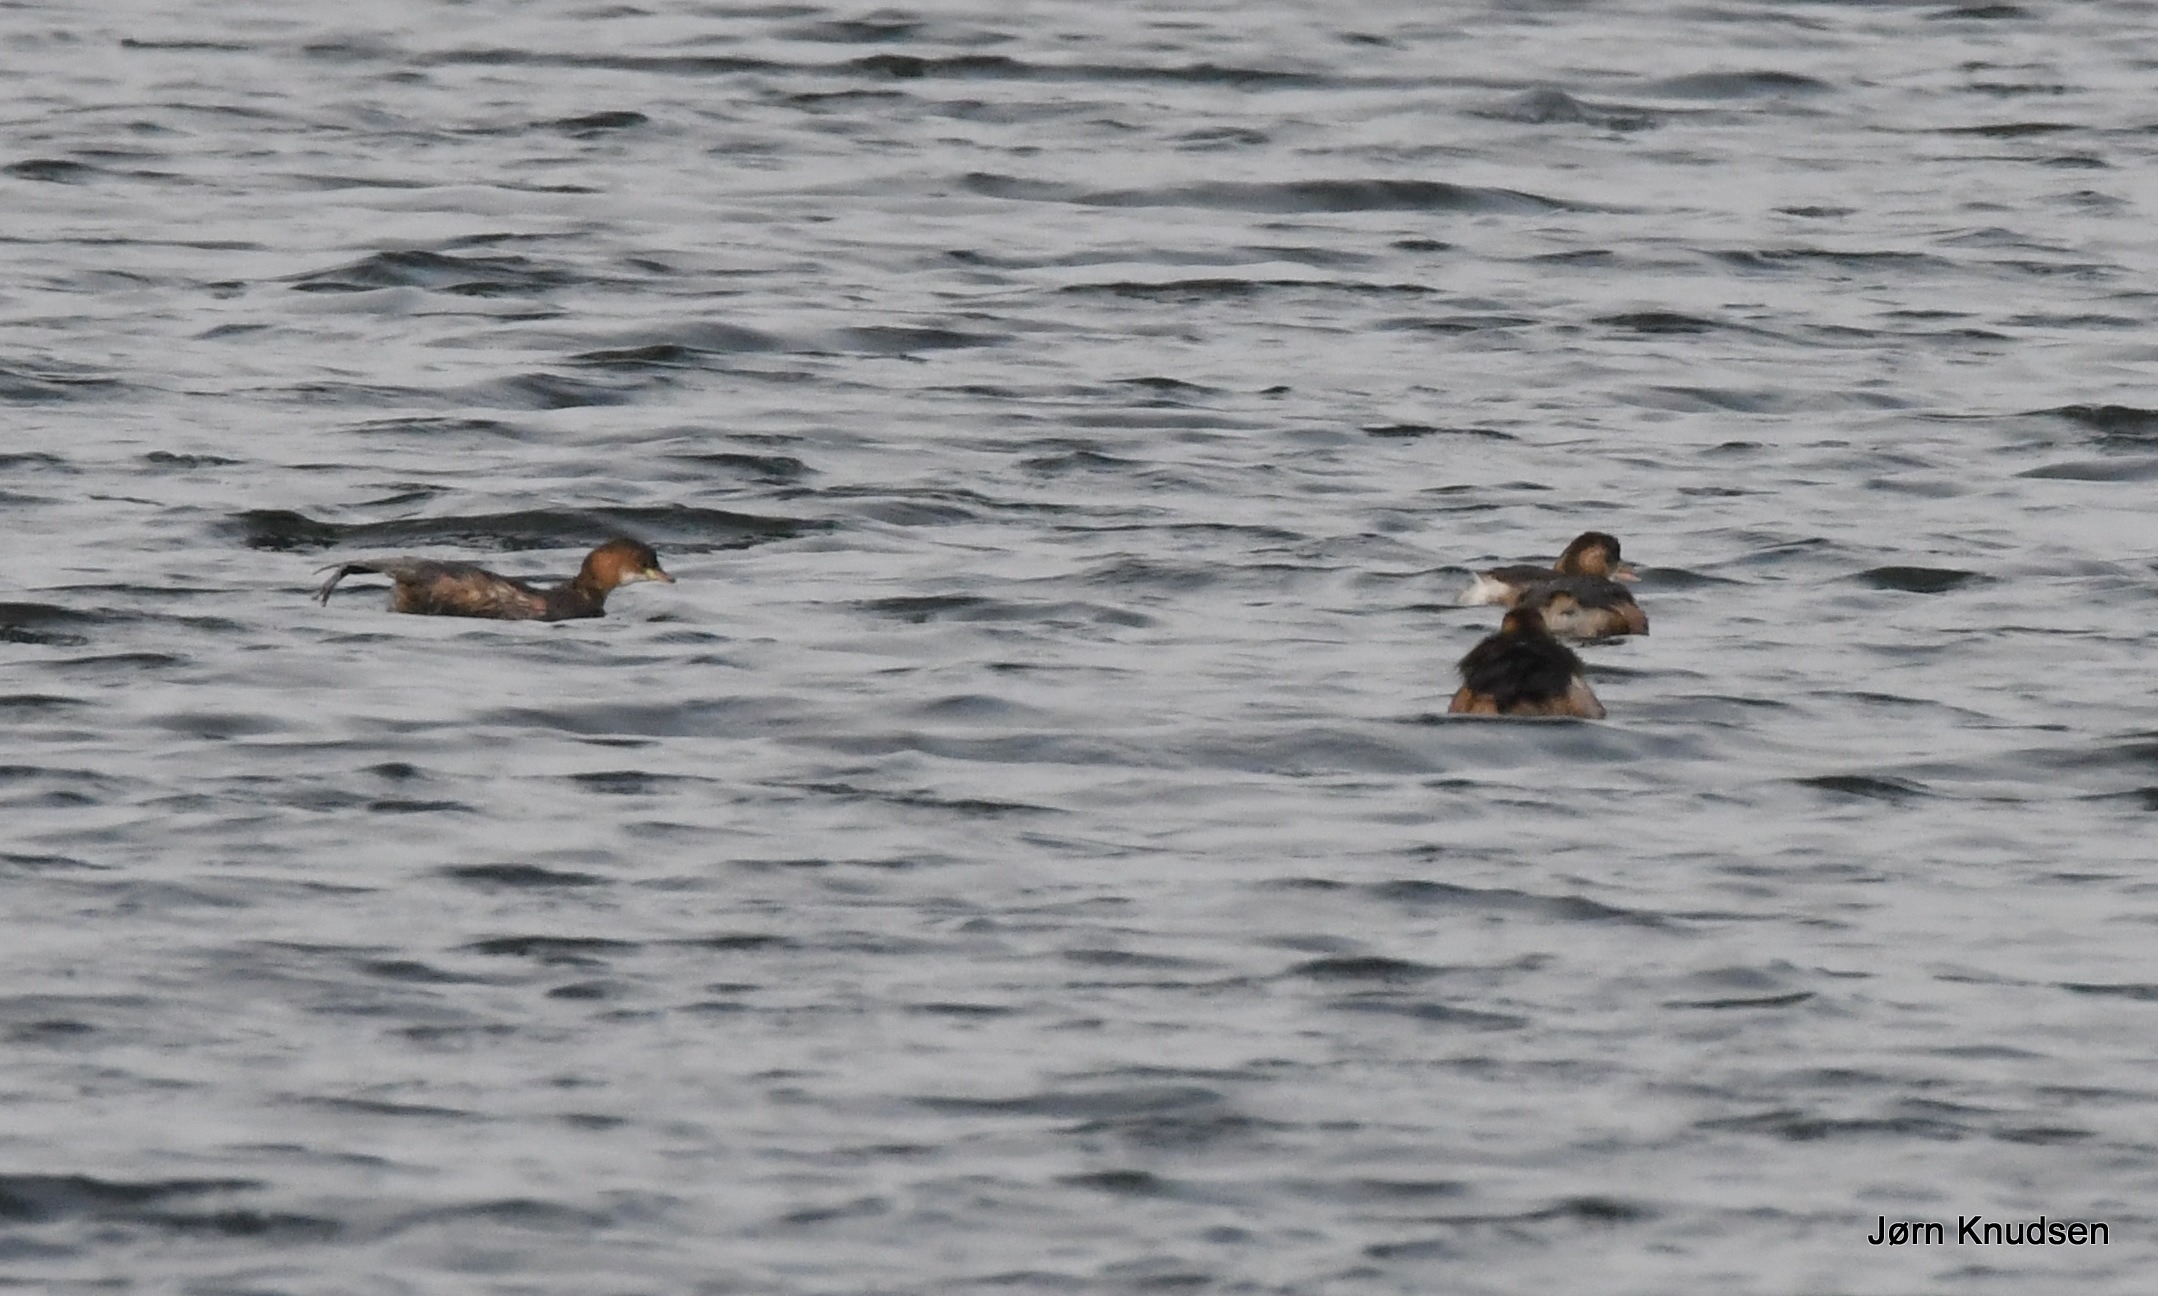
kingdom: Animalia
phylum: Chordata
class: Aves
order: Podicipediformes
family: Podicipedidae
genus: Tachybaptus
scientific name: Tachybaptus ruficollis
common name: Lille lappedykker
